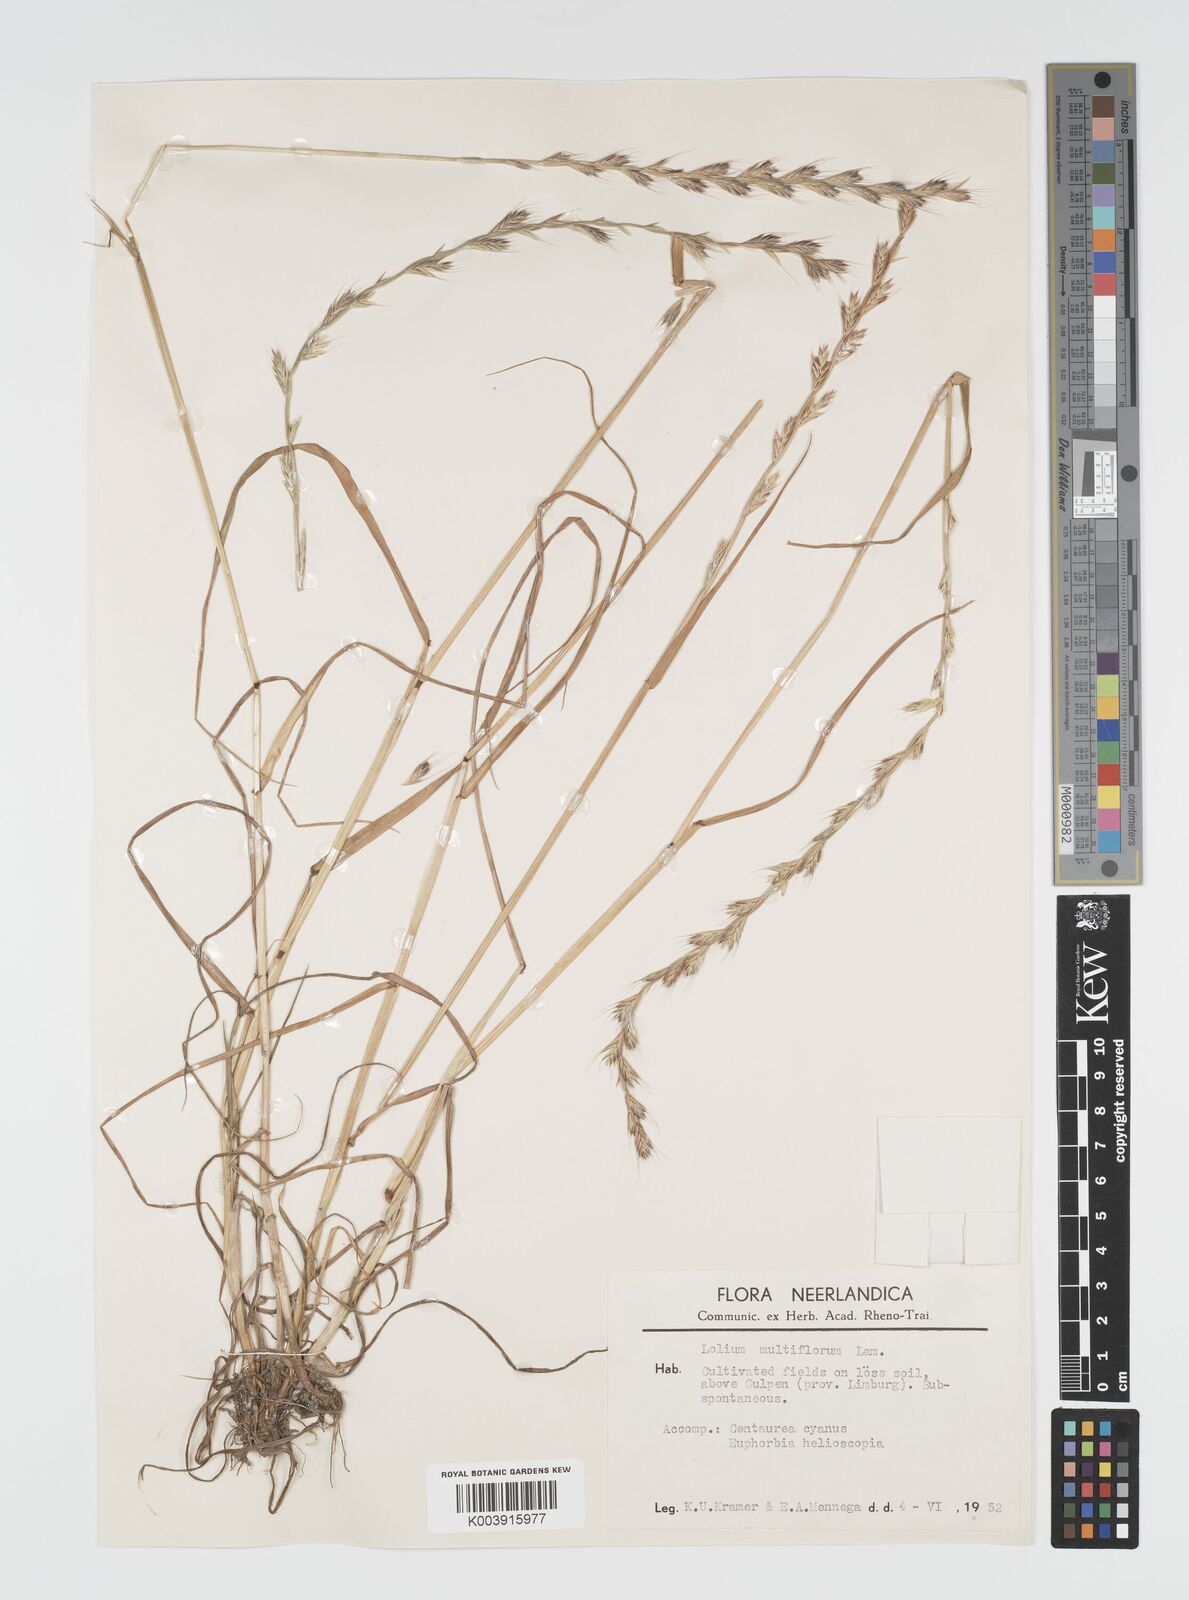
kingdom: Plantae
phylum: Tracheophyta
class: Liliopsida
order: Poales
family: Poaceae
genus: Lolium
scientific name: Lolium multiflorum
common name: Annual ryegrass
